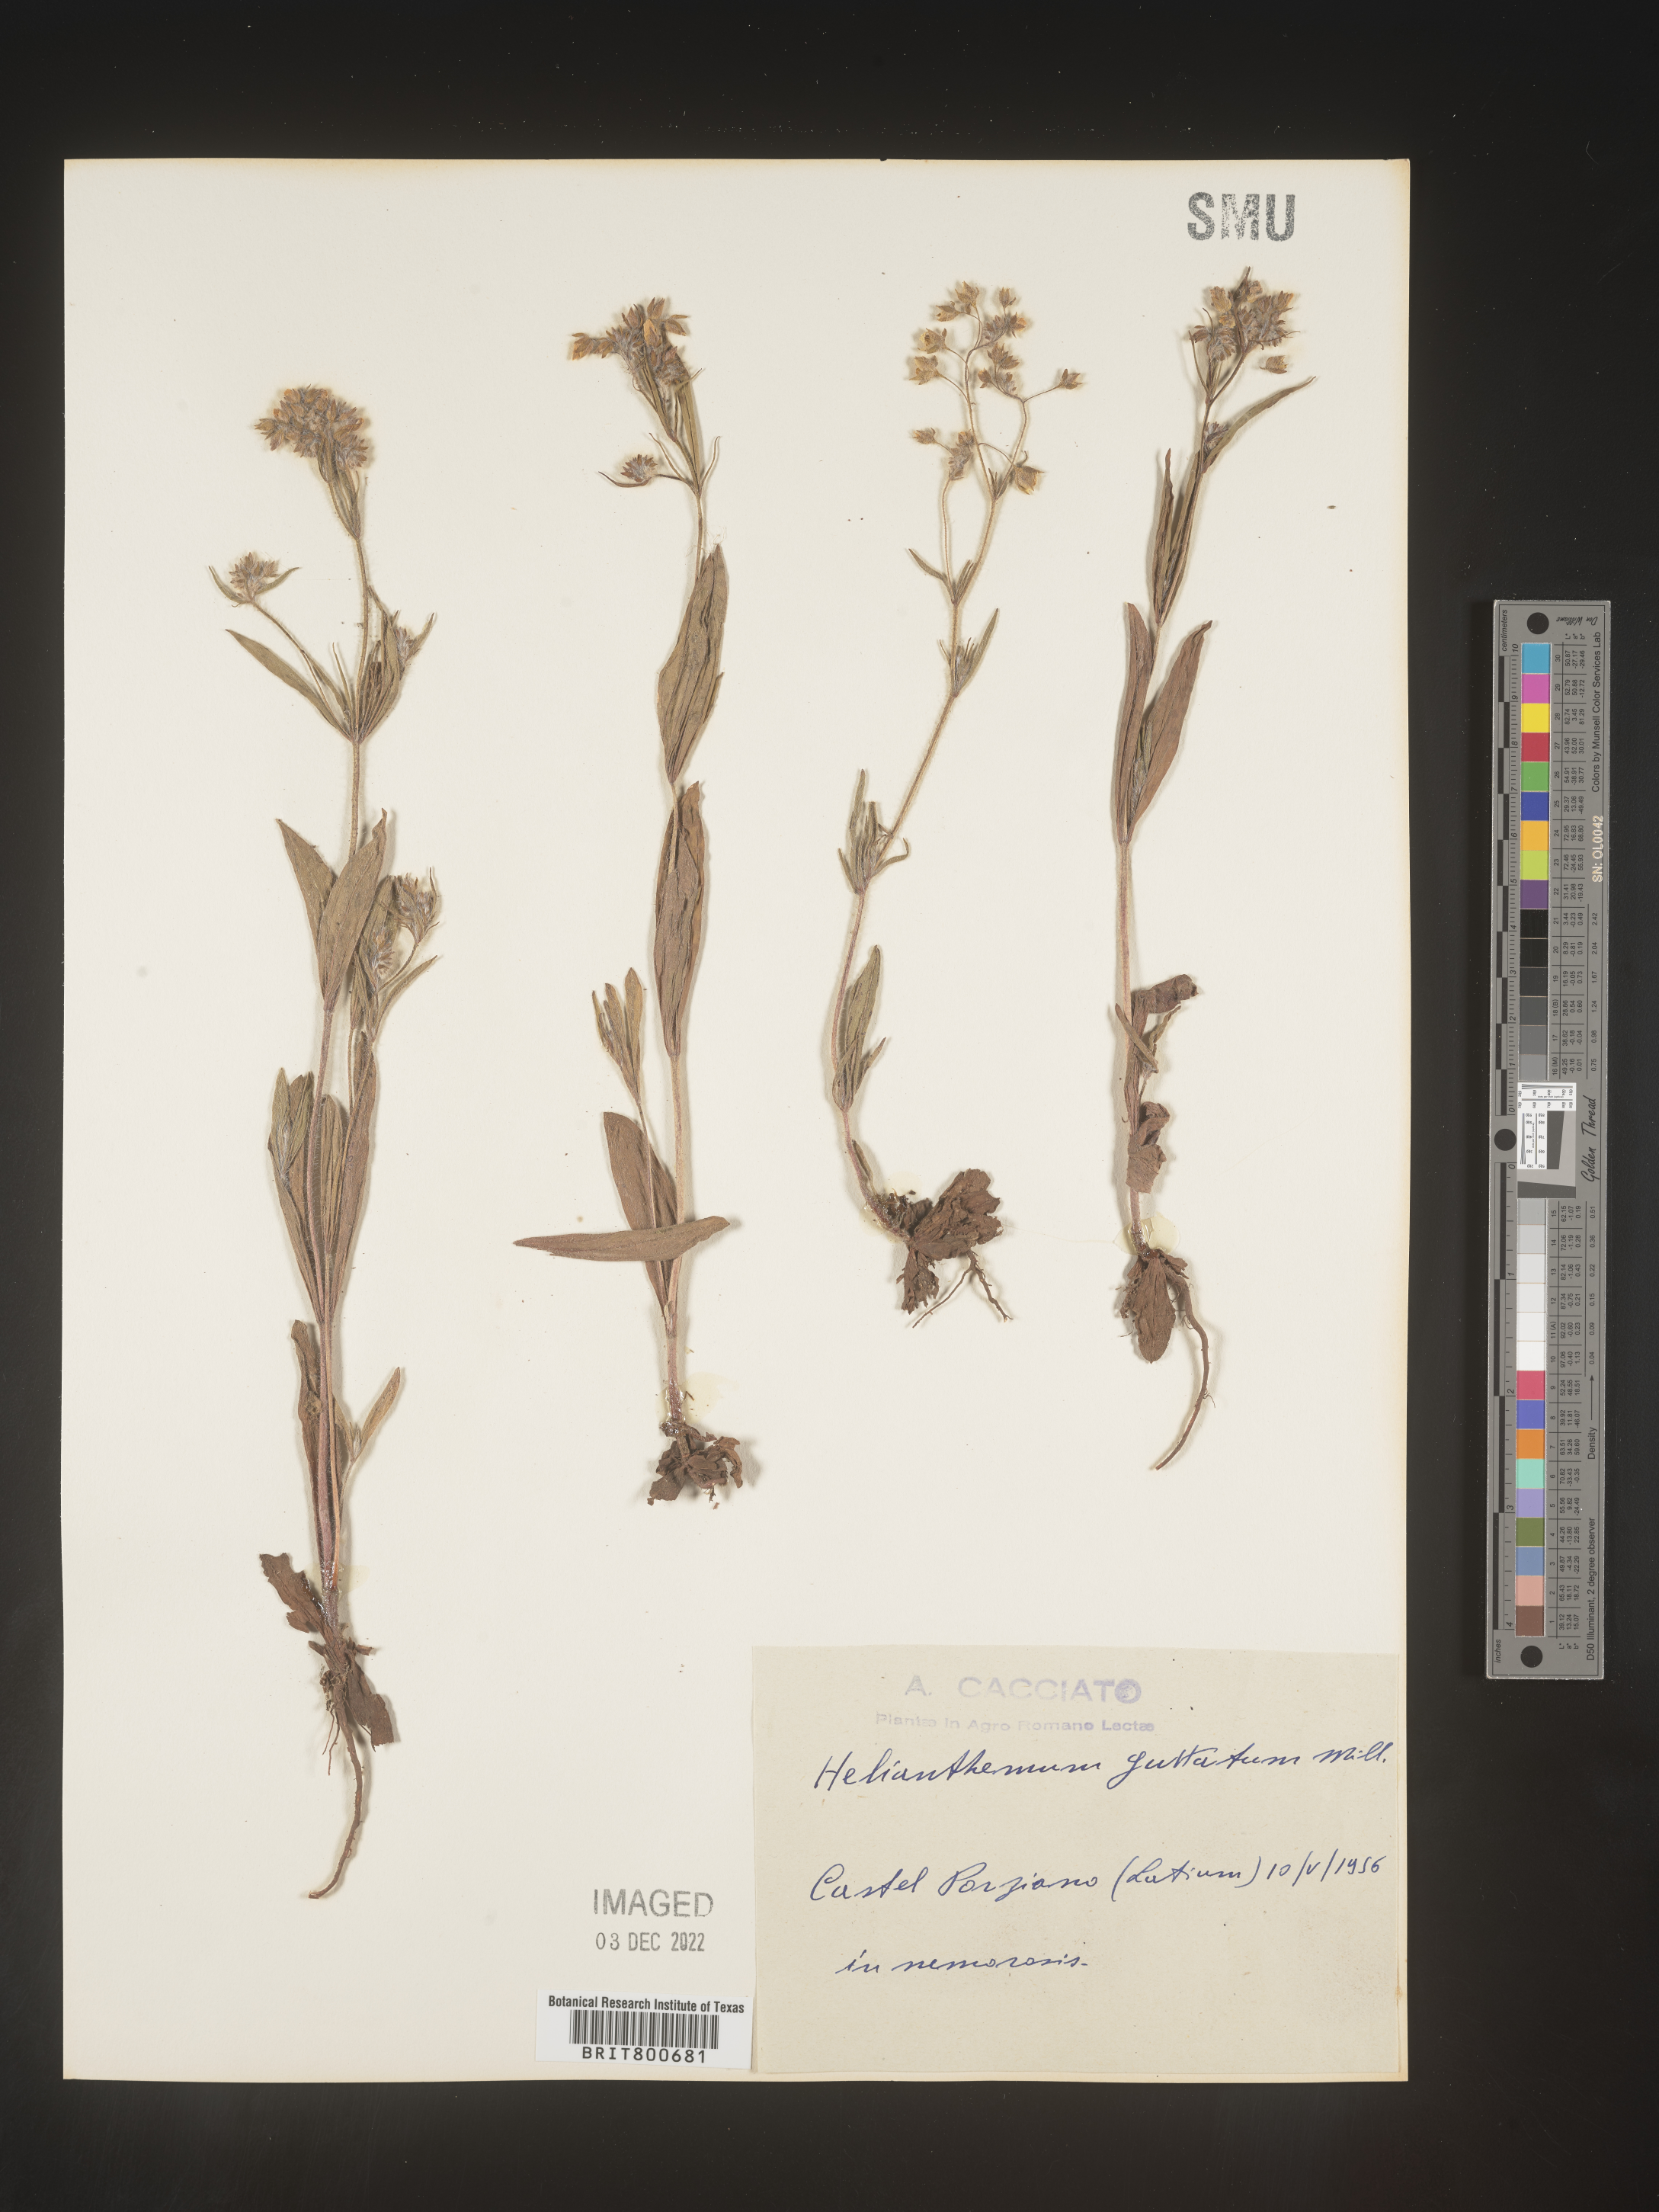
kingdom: Plantae
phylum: Tracheophyta
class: Magnoliopsida
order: Malvales
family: Cistaceae
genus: Helianthemum
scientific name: Helianthemum
